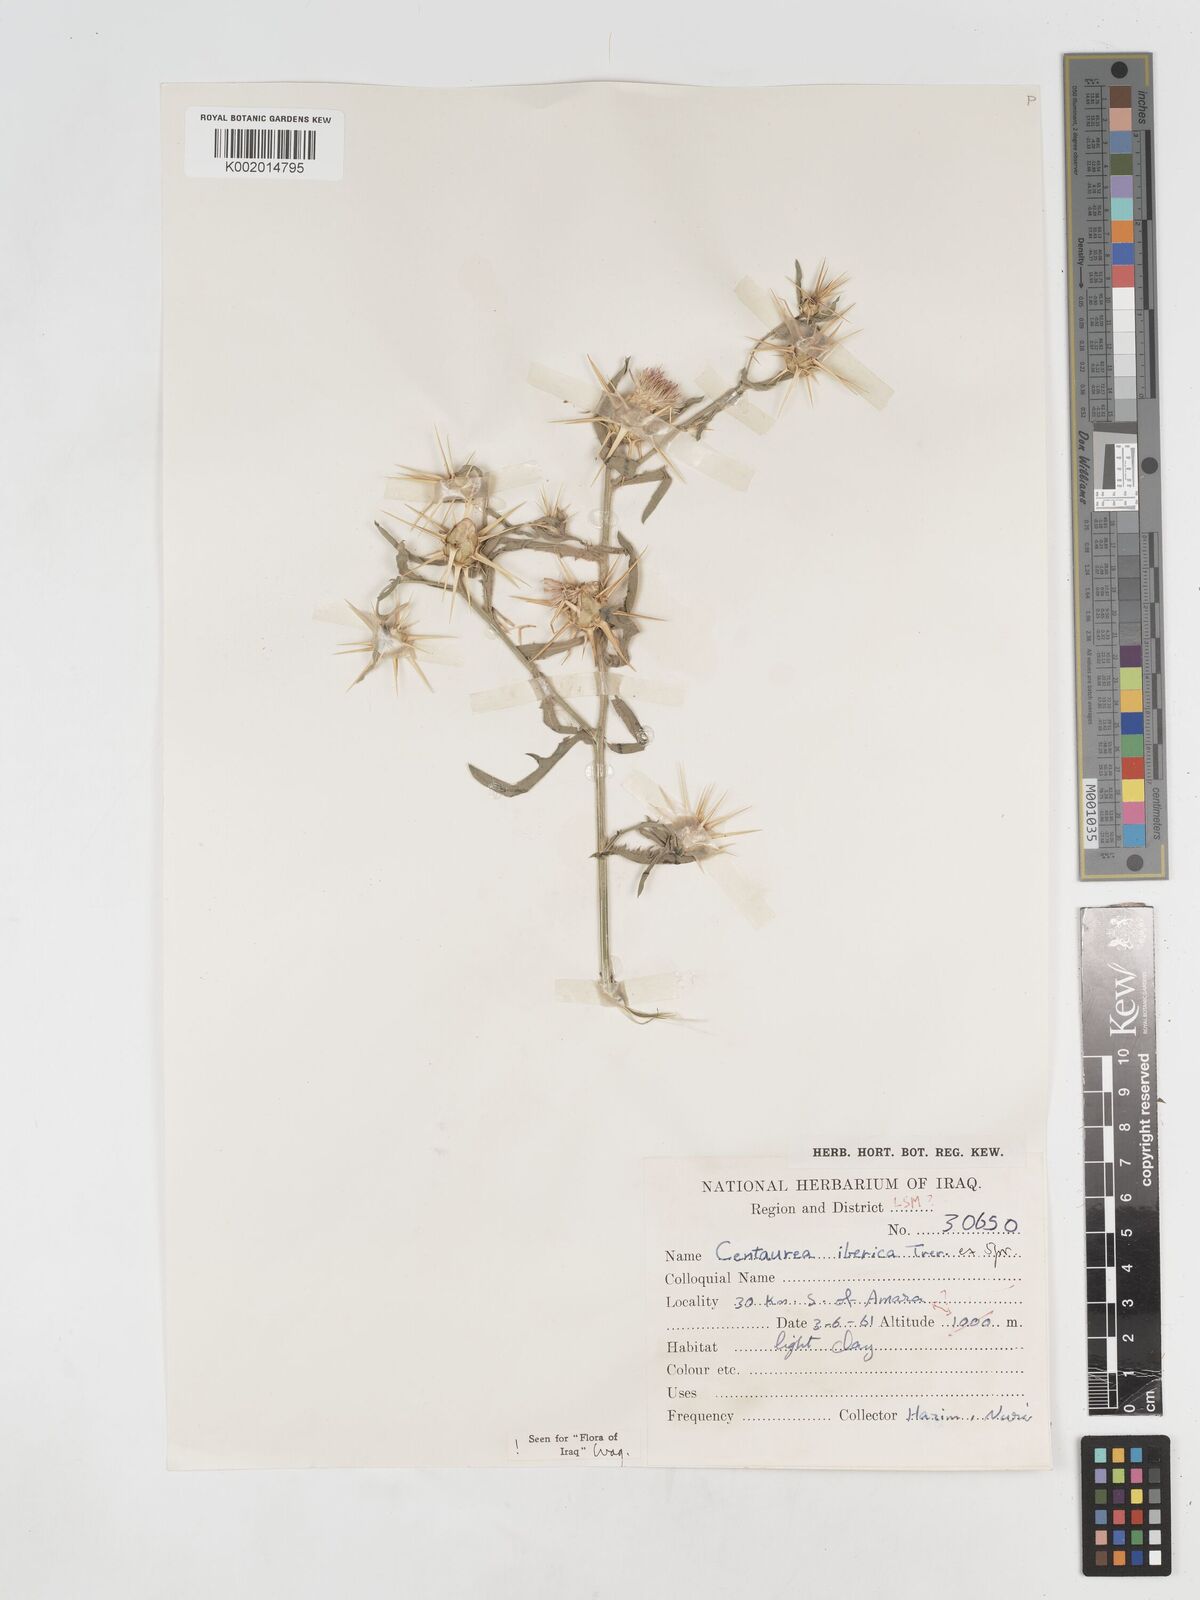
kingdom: Plantae
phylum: Tracheophyta
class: Magnoliopsida
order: Asterales
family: Asteraceae
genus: Centaurea
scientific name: Centaurea iberica
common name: Iberian knapweed
